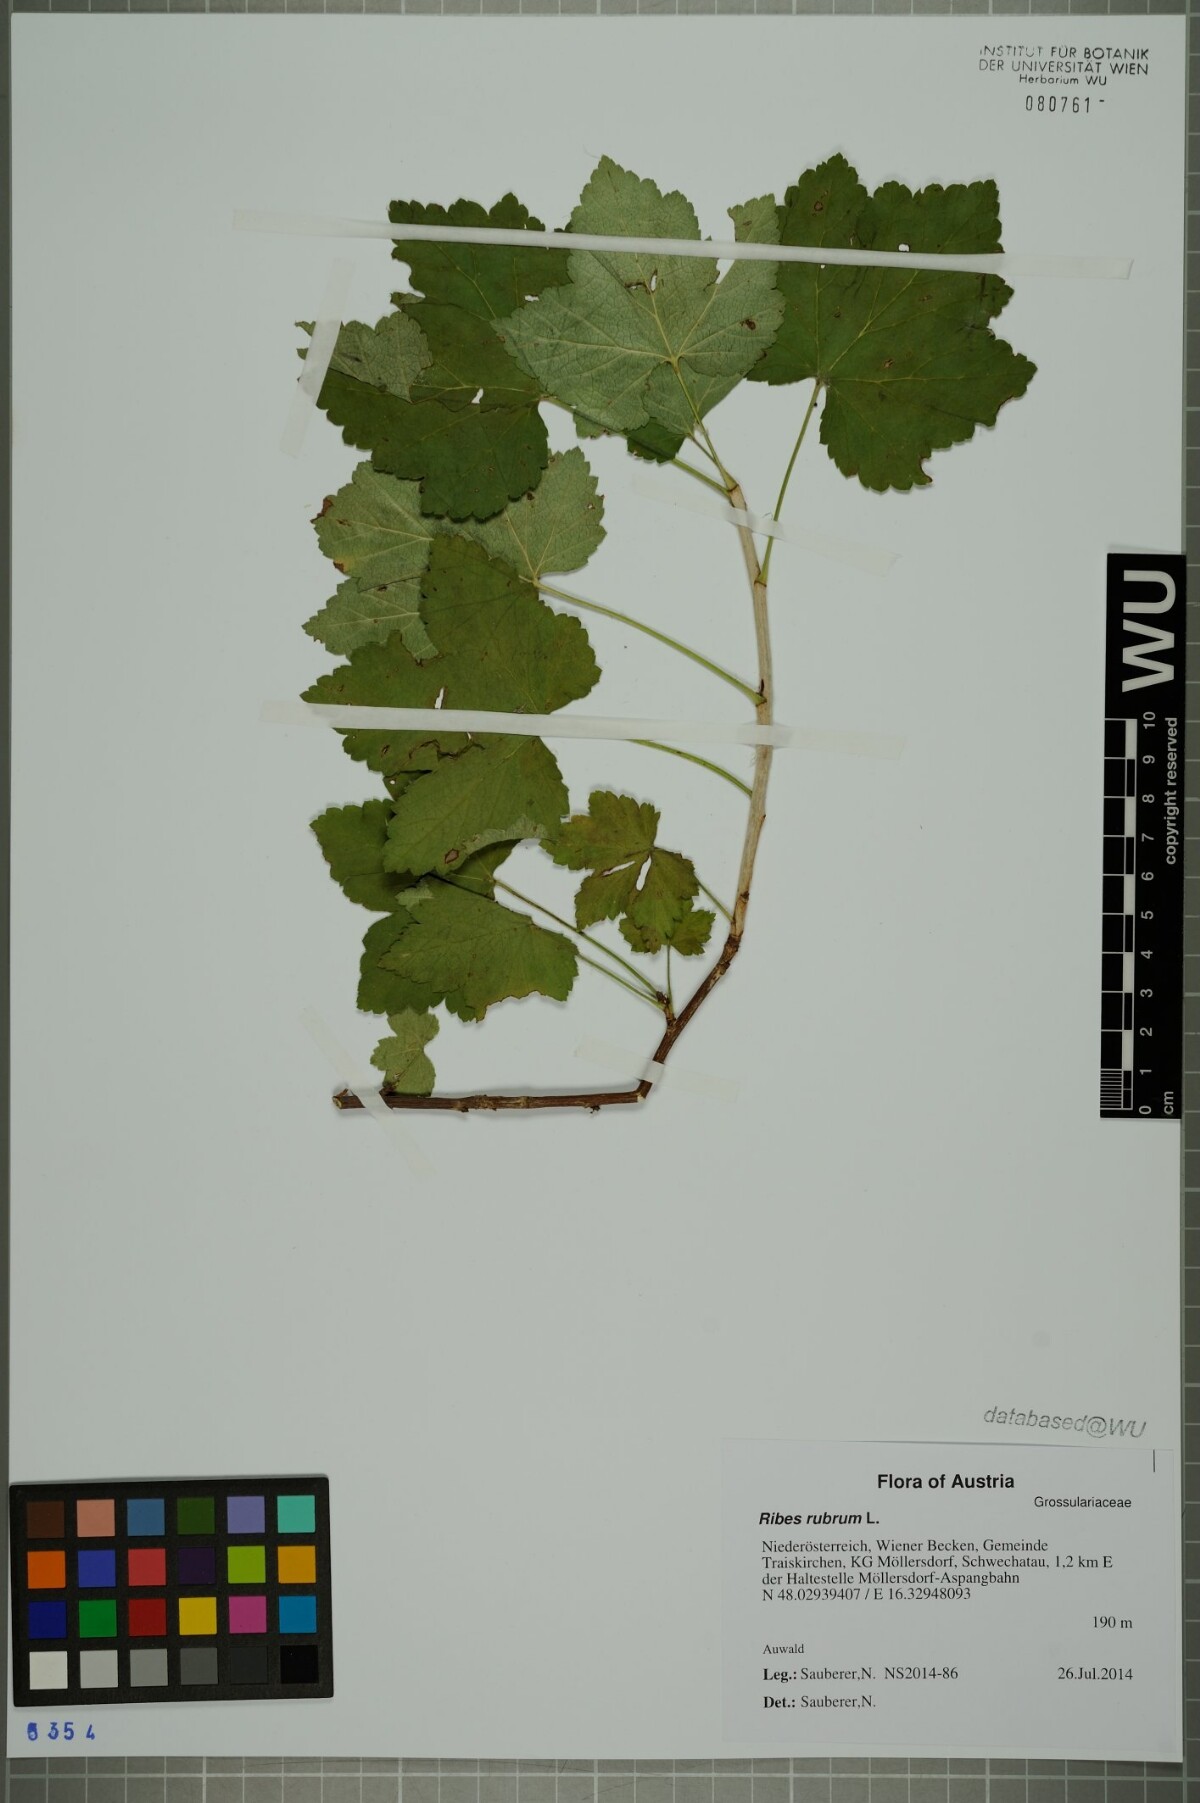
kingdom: Plantae
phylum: Tracheophyta
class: Magnoliopsida
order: Saxifragales
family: Grossulariaceae
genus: Ribes
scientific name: Ribes rubrum
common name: Red currant
